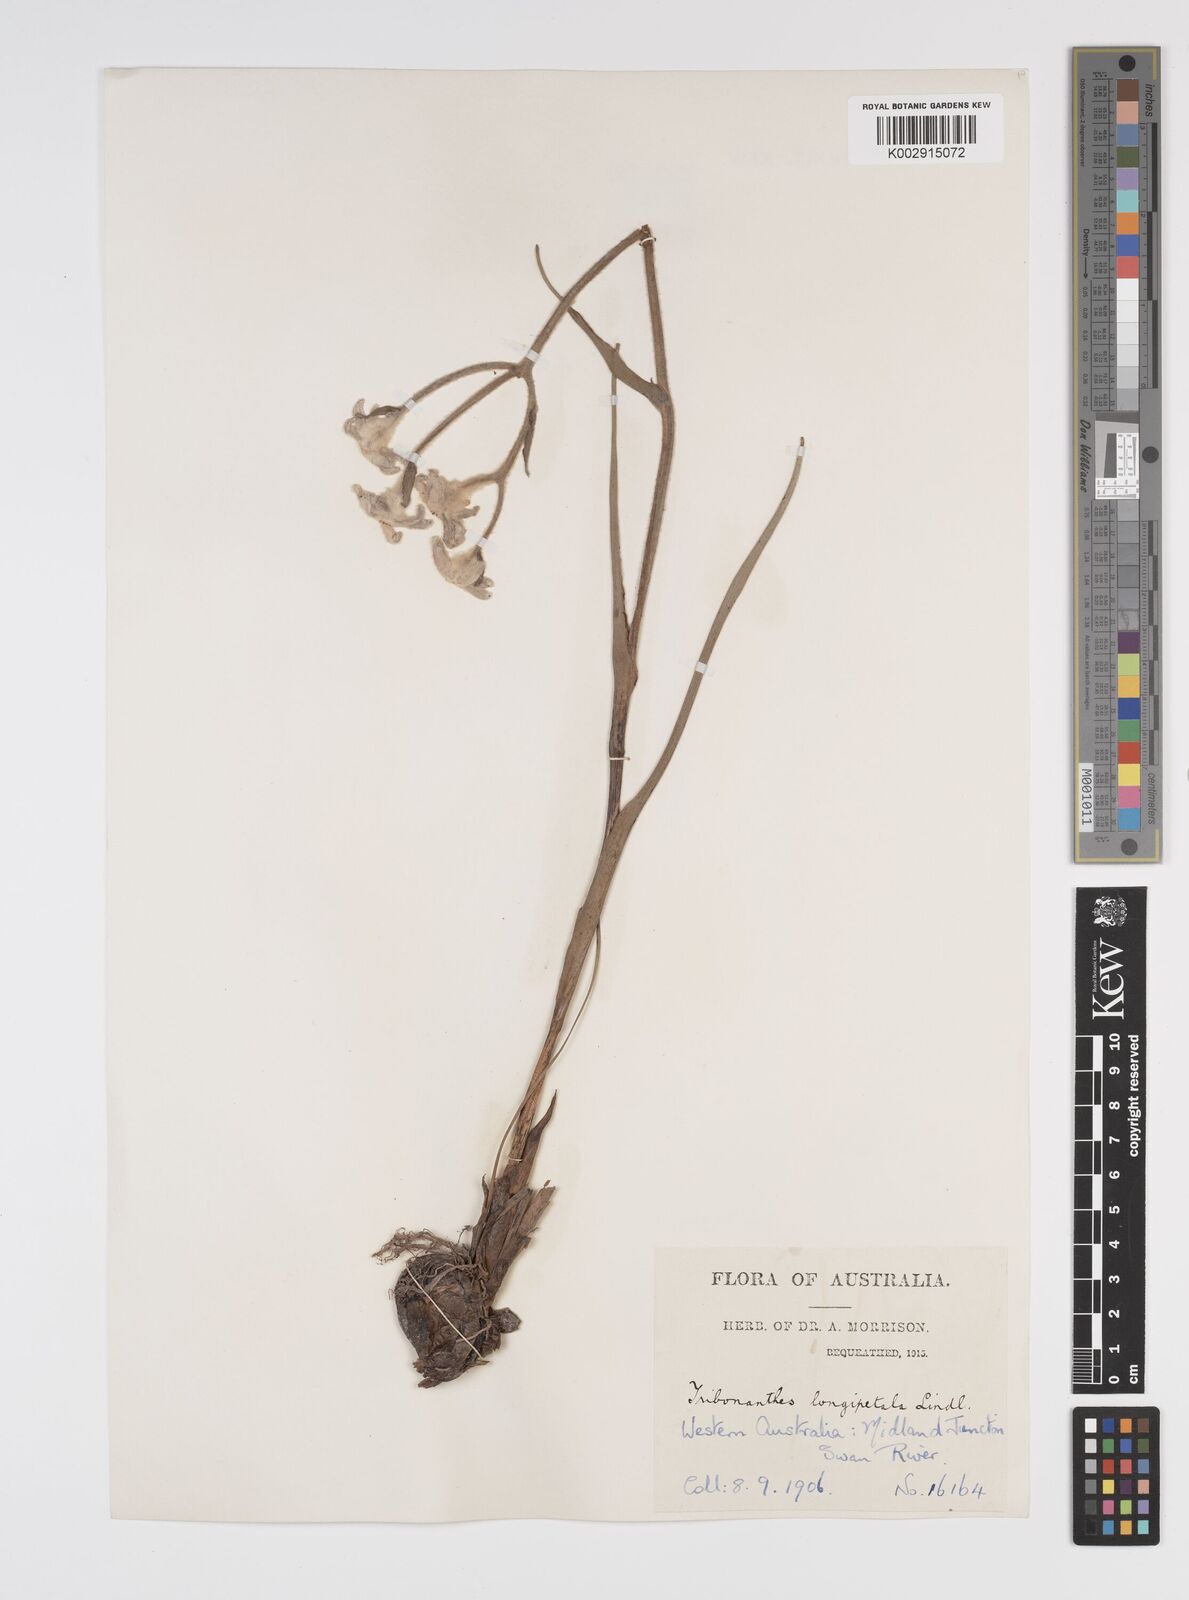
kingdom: Plantae
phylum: Tracheophyta
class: Liliopsida
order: Commelinales
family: Haemodoraceae
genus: Tribonanthes
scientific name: Tribonanthes longipetala
